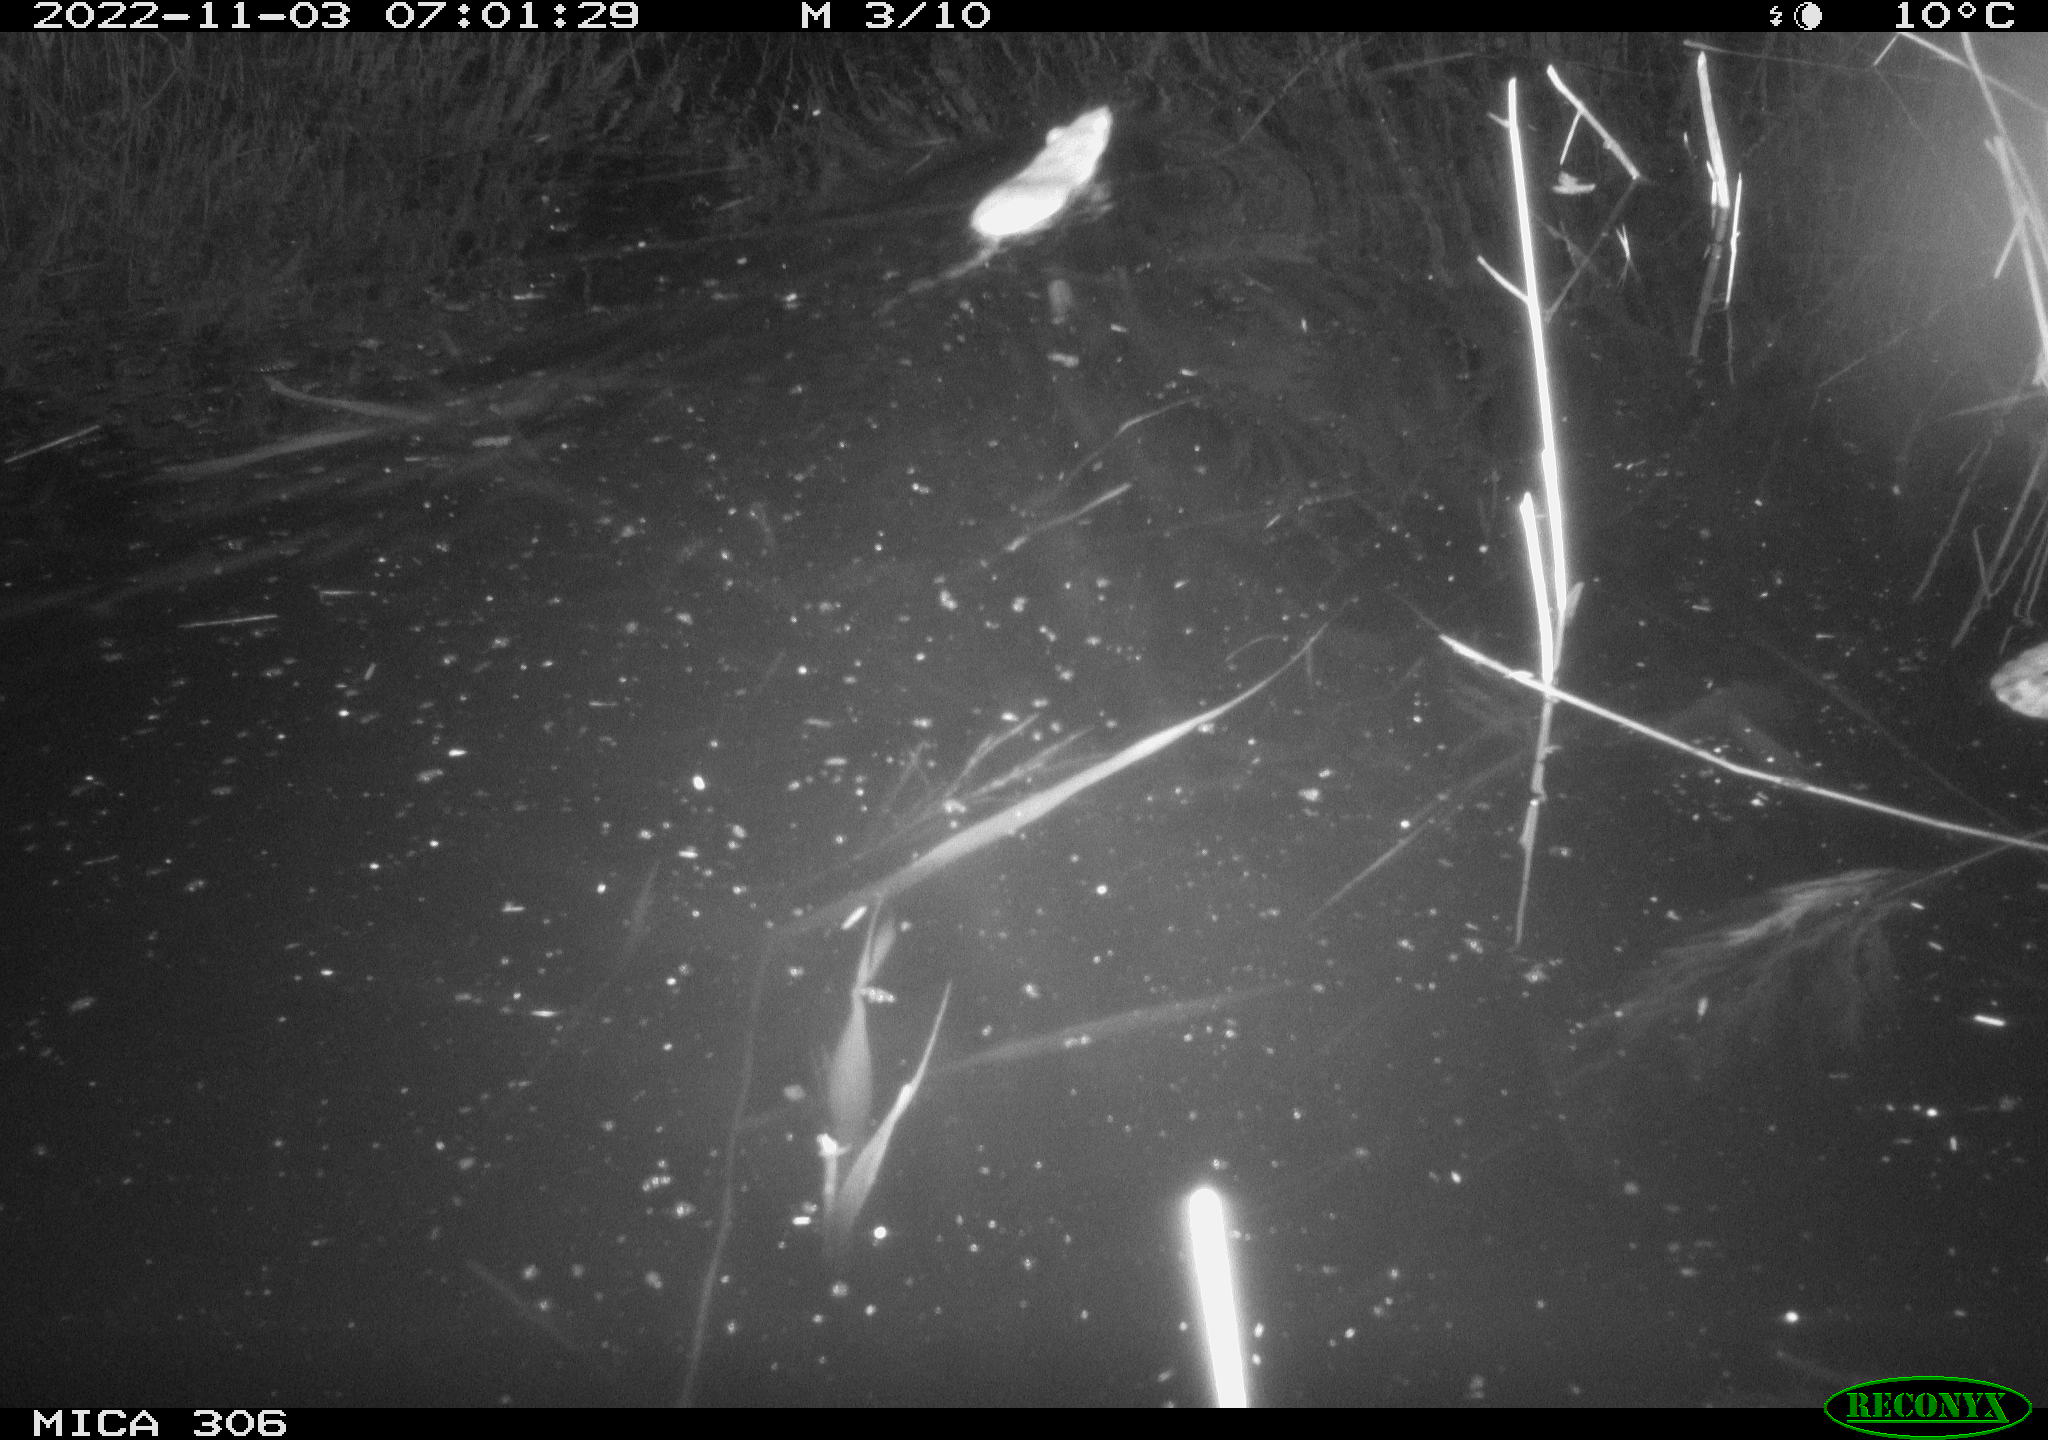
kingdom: Animalia
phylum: Chordata
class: Mammalia
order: Rodentia
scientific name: Rodentia
